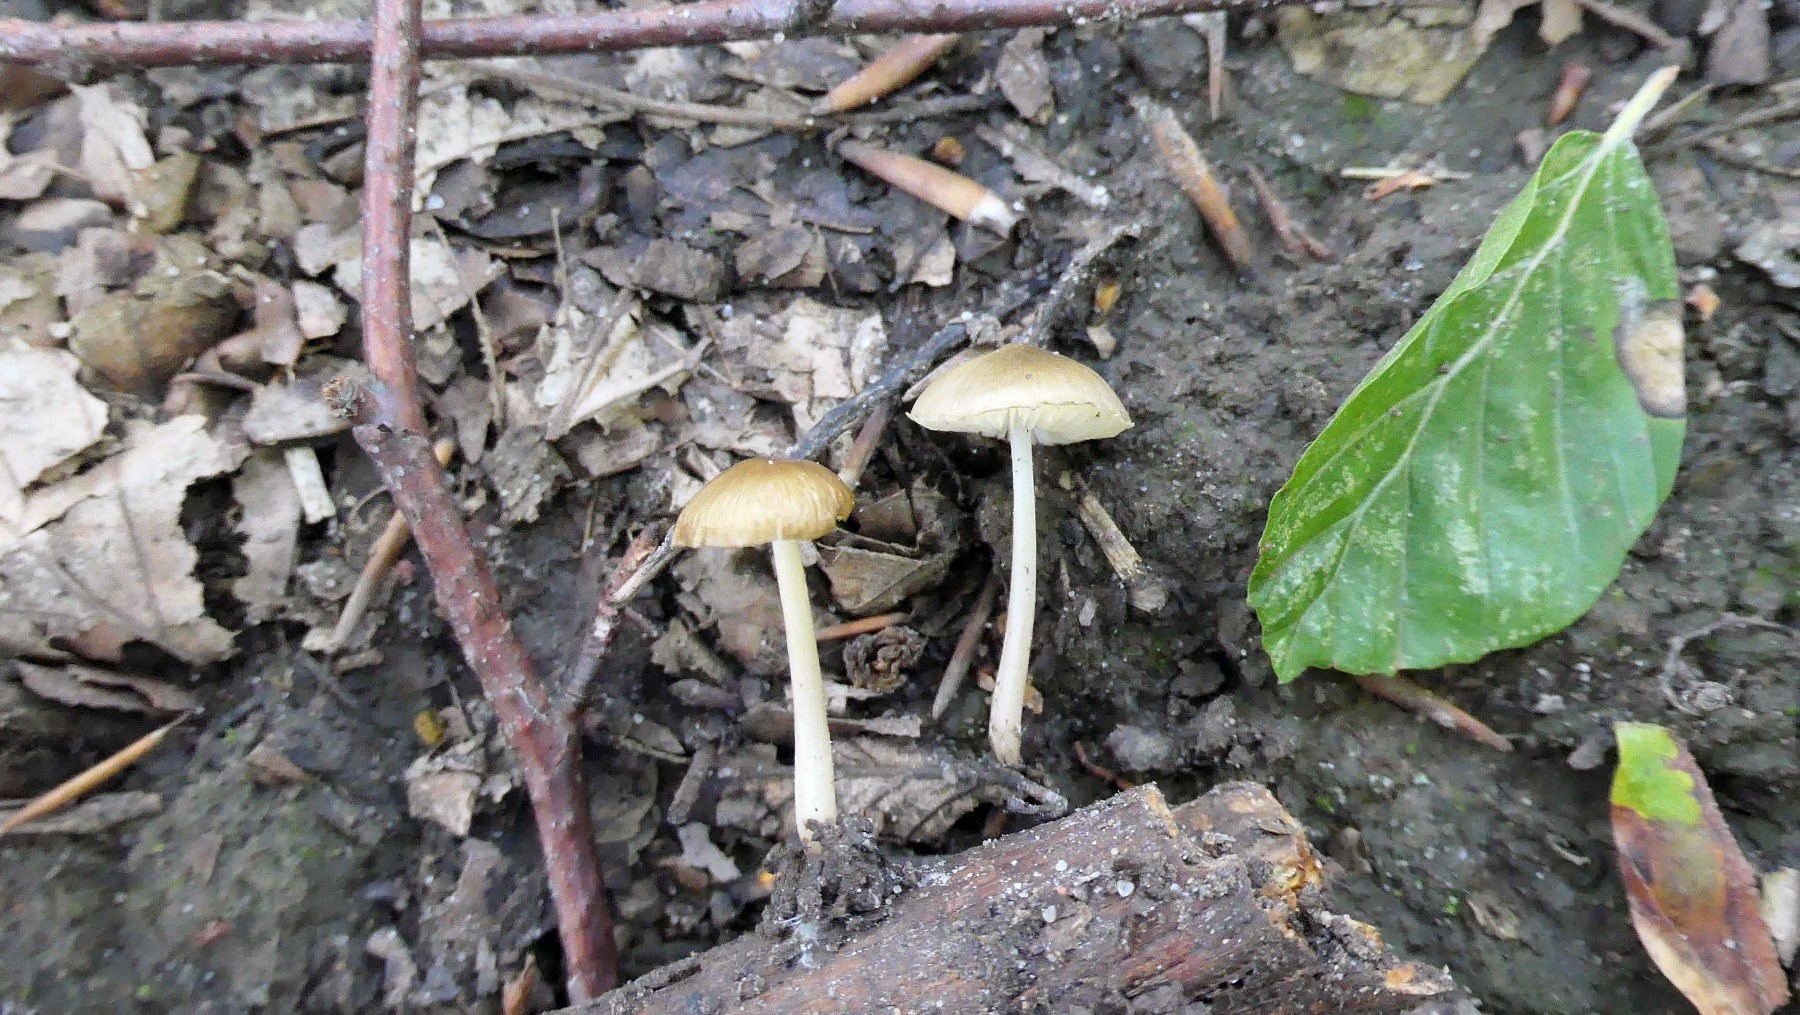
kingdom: Fungi
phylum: Basidiomycota
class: Agaricomycetes
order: Agaricales
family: Porotheleaceae
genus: Hydropodia
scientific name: Hydropodia subalpina
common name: vår-fnugfod
